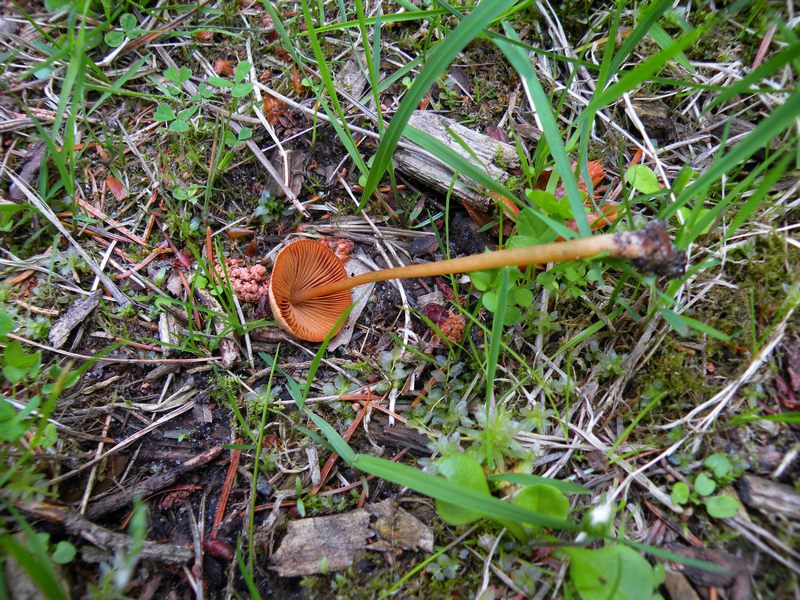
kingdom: Fungi
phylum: Basidiomycota
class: Agaricomycetes
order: Agaricales
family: Bolbitiaceae
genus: Conocybe
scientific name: Conocybe semiglobata
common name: halvkugleformet keglehat
